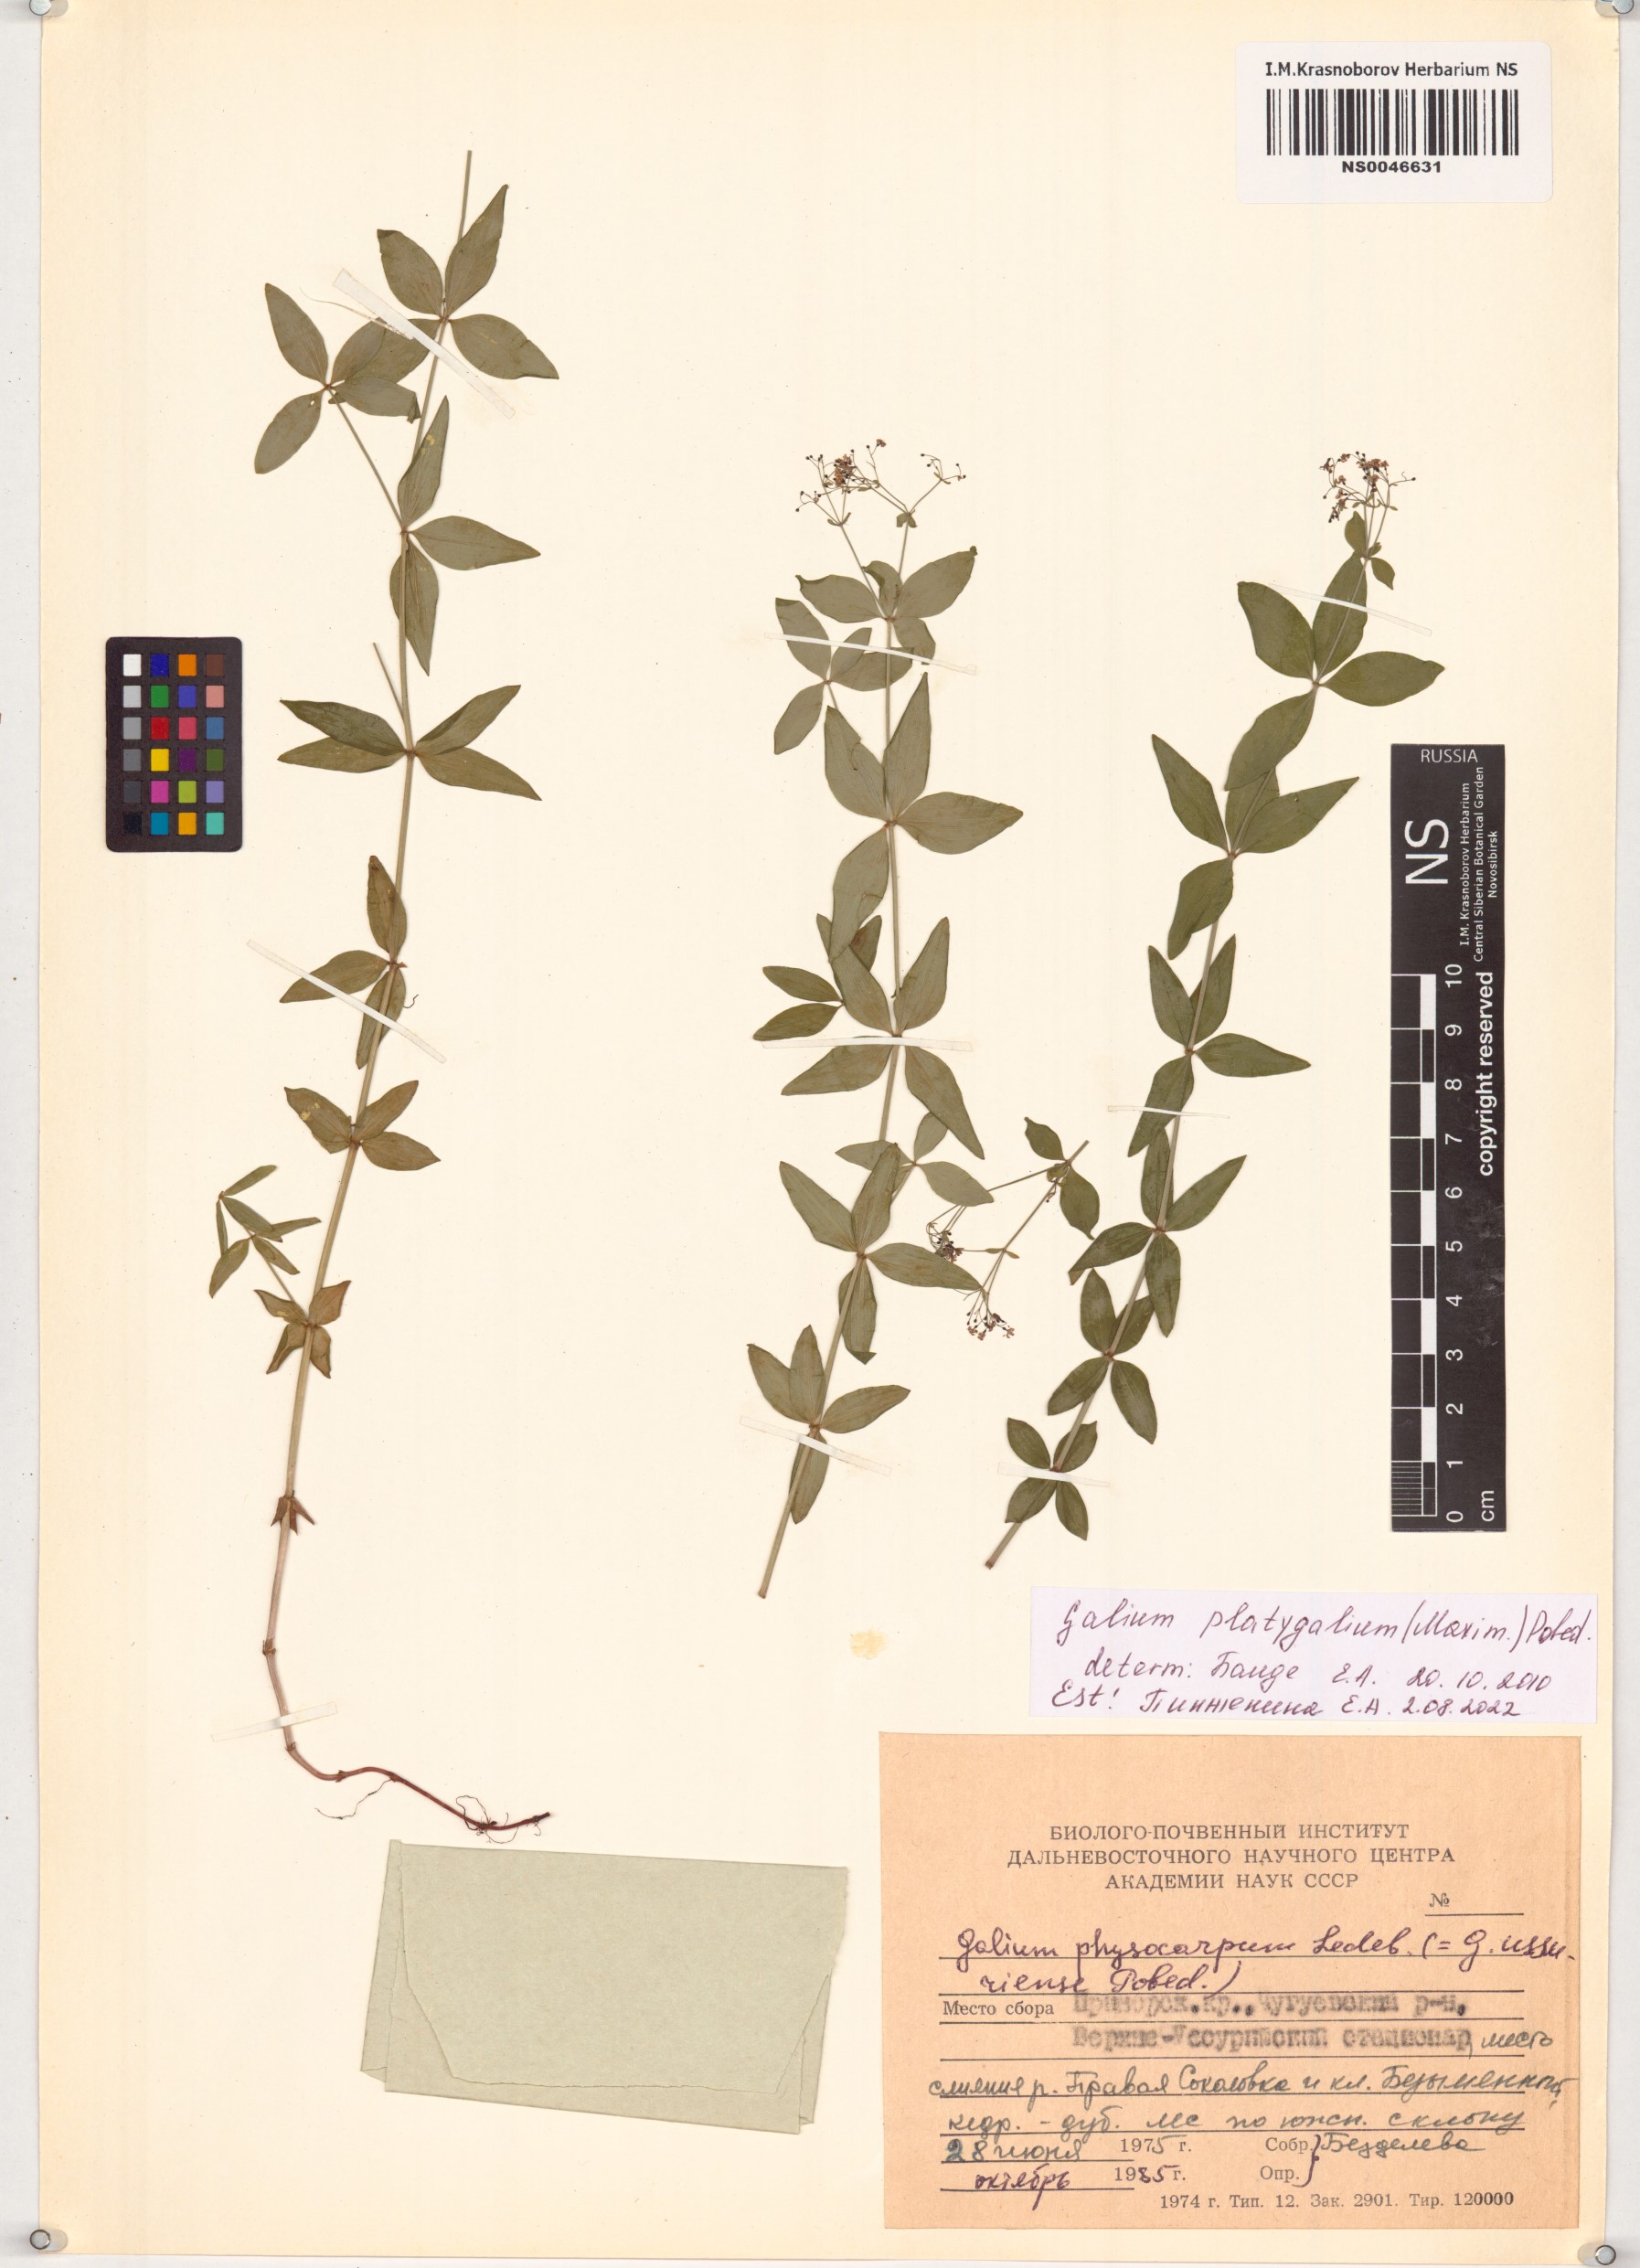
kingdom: Plantae
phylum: Tracheophyta
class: Magnoliopsida
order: Gentianales
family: Rubiaceae
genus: Galium
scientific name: Galium platygalium
